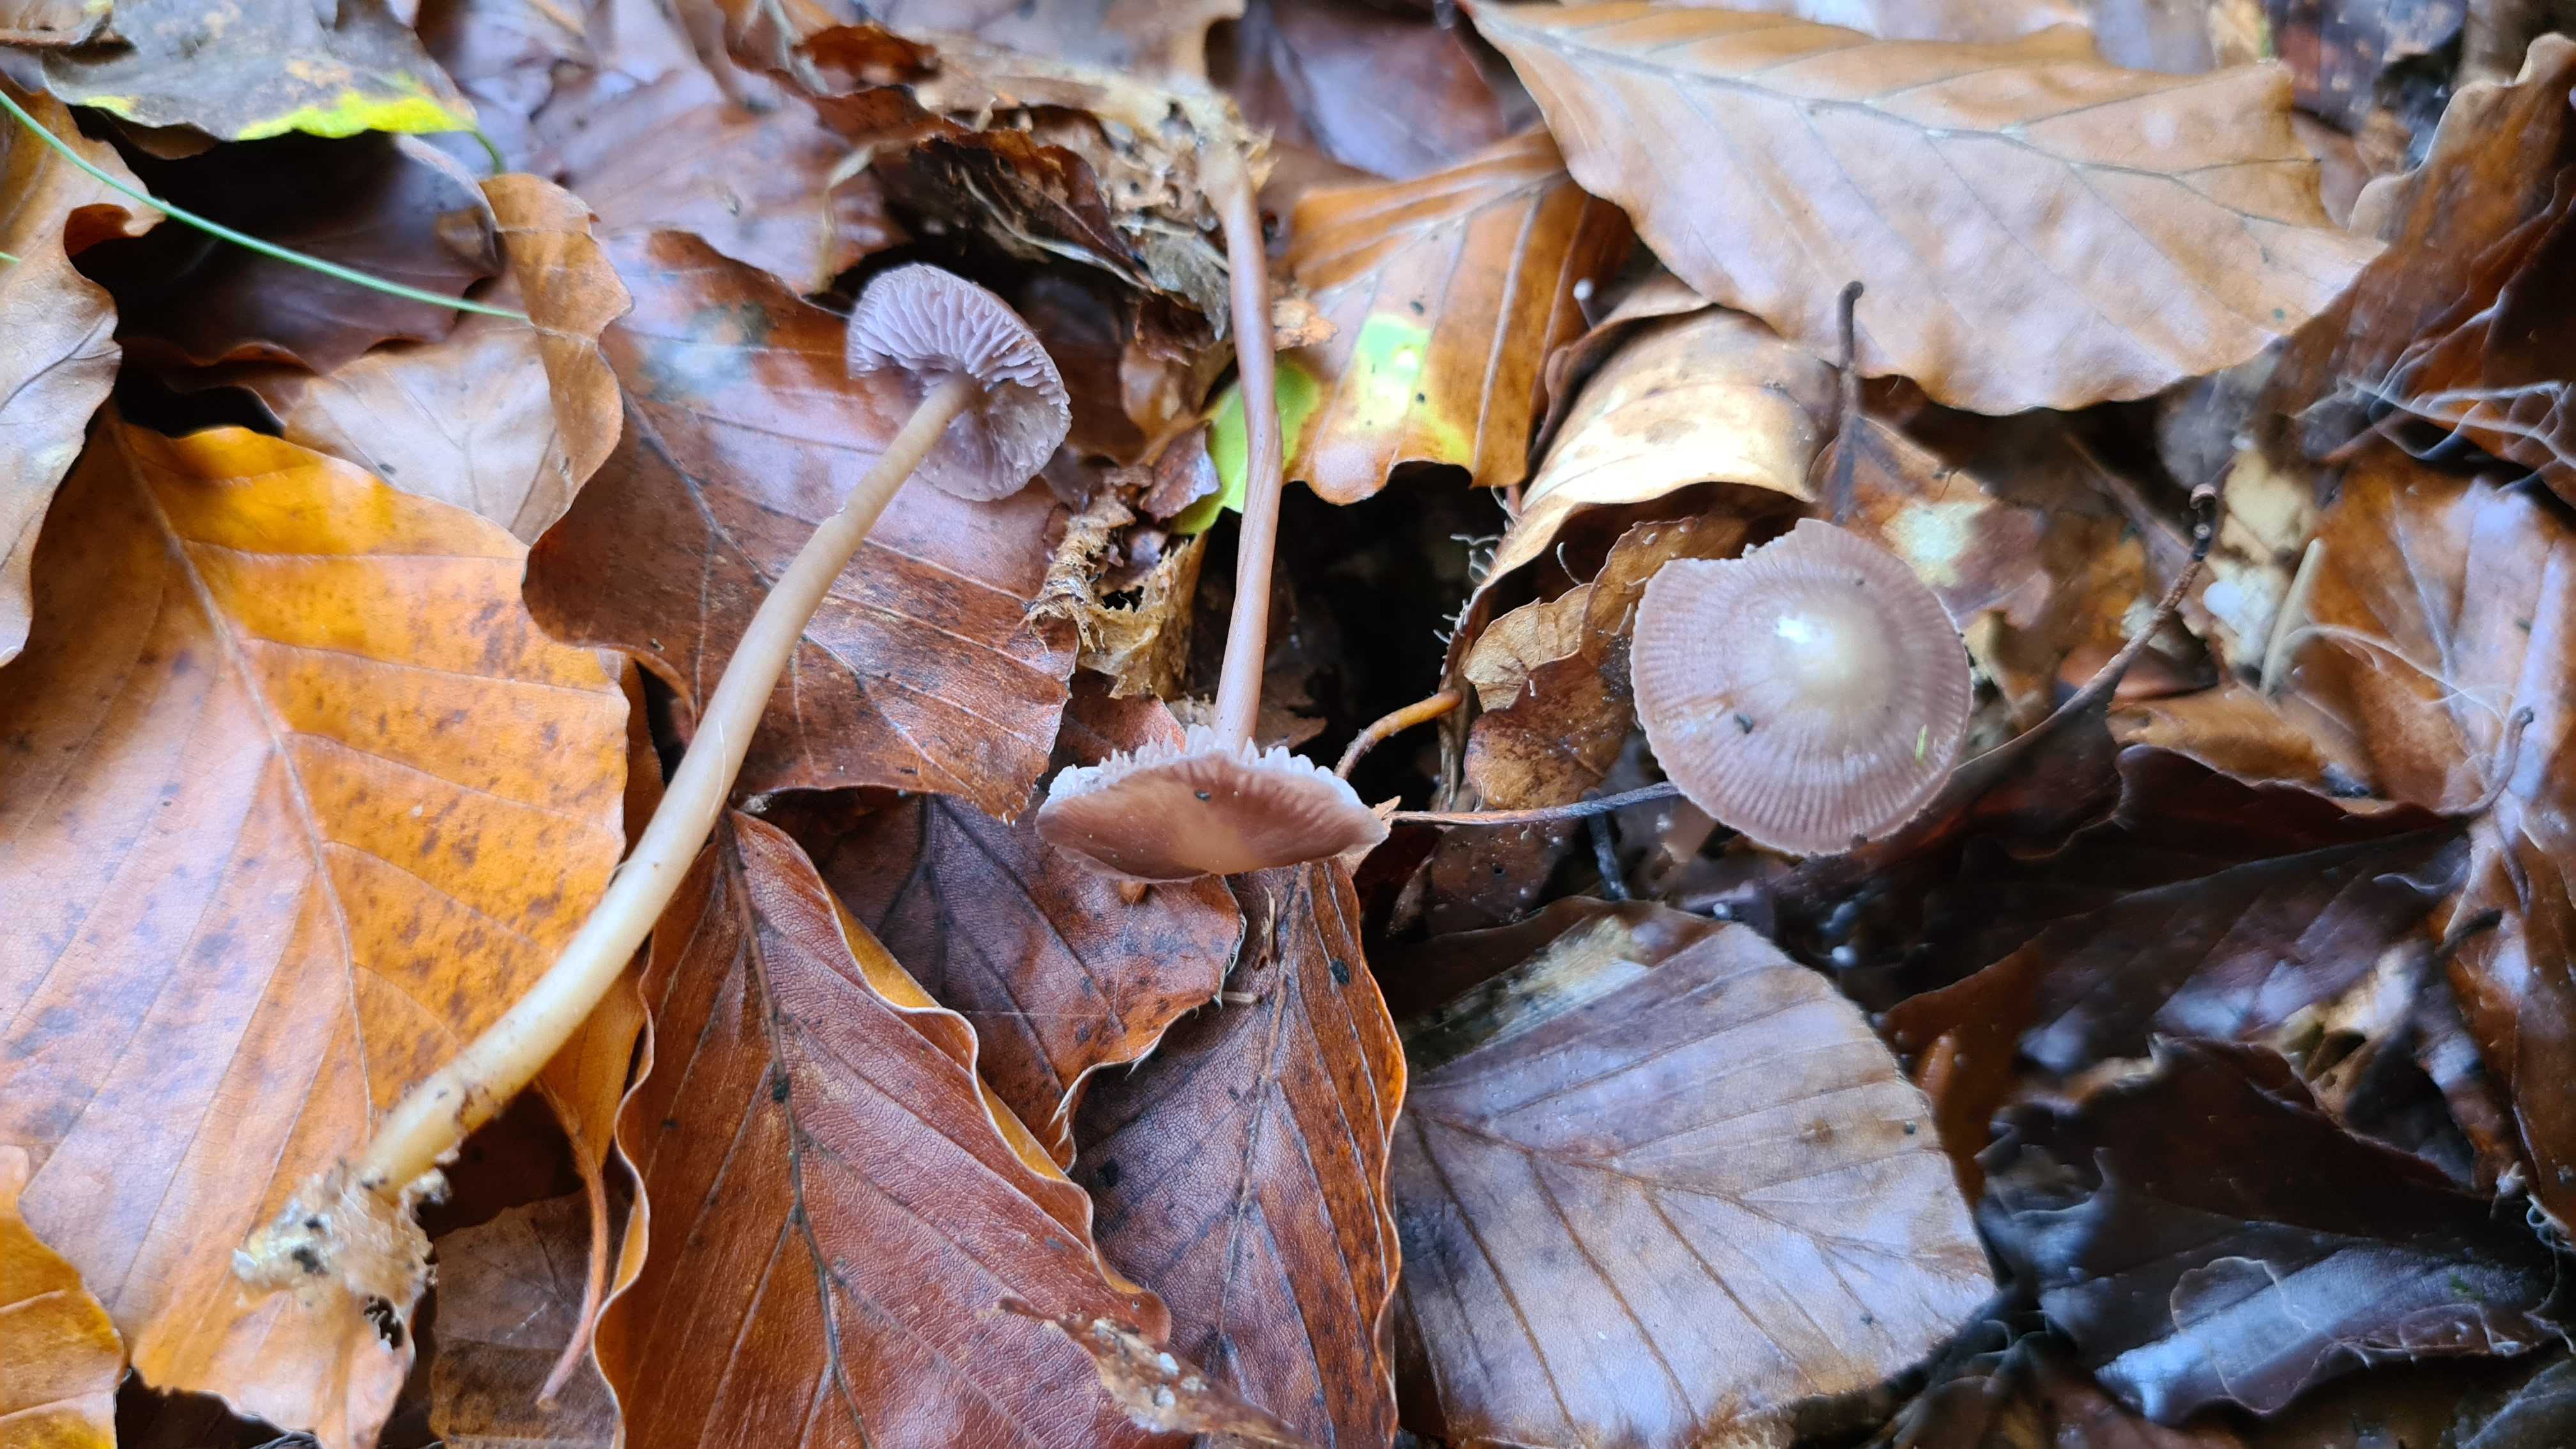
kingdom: Fungi
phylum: Basidiomycota
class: Agaricomycetes
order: Agaricales
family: Mycenaceae
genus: Prunulus
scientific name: Prunulus diosmus
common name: tobaks-huesvamp
